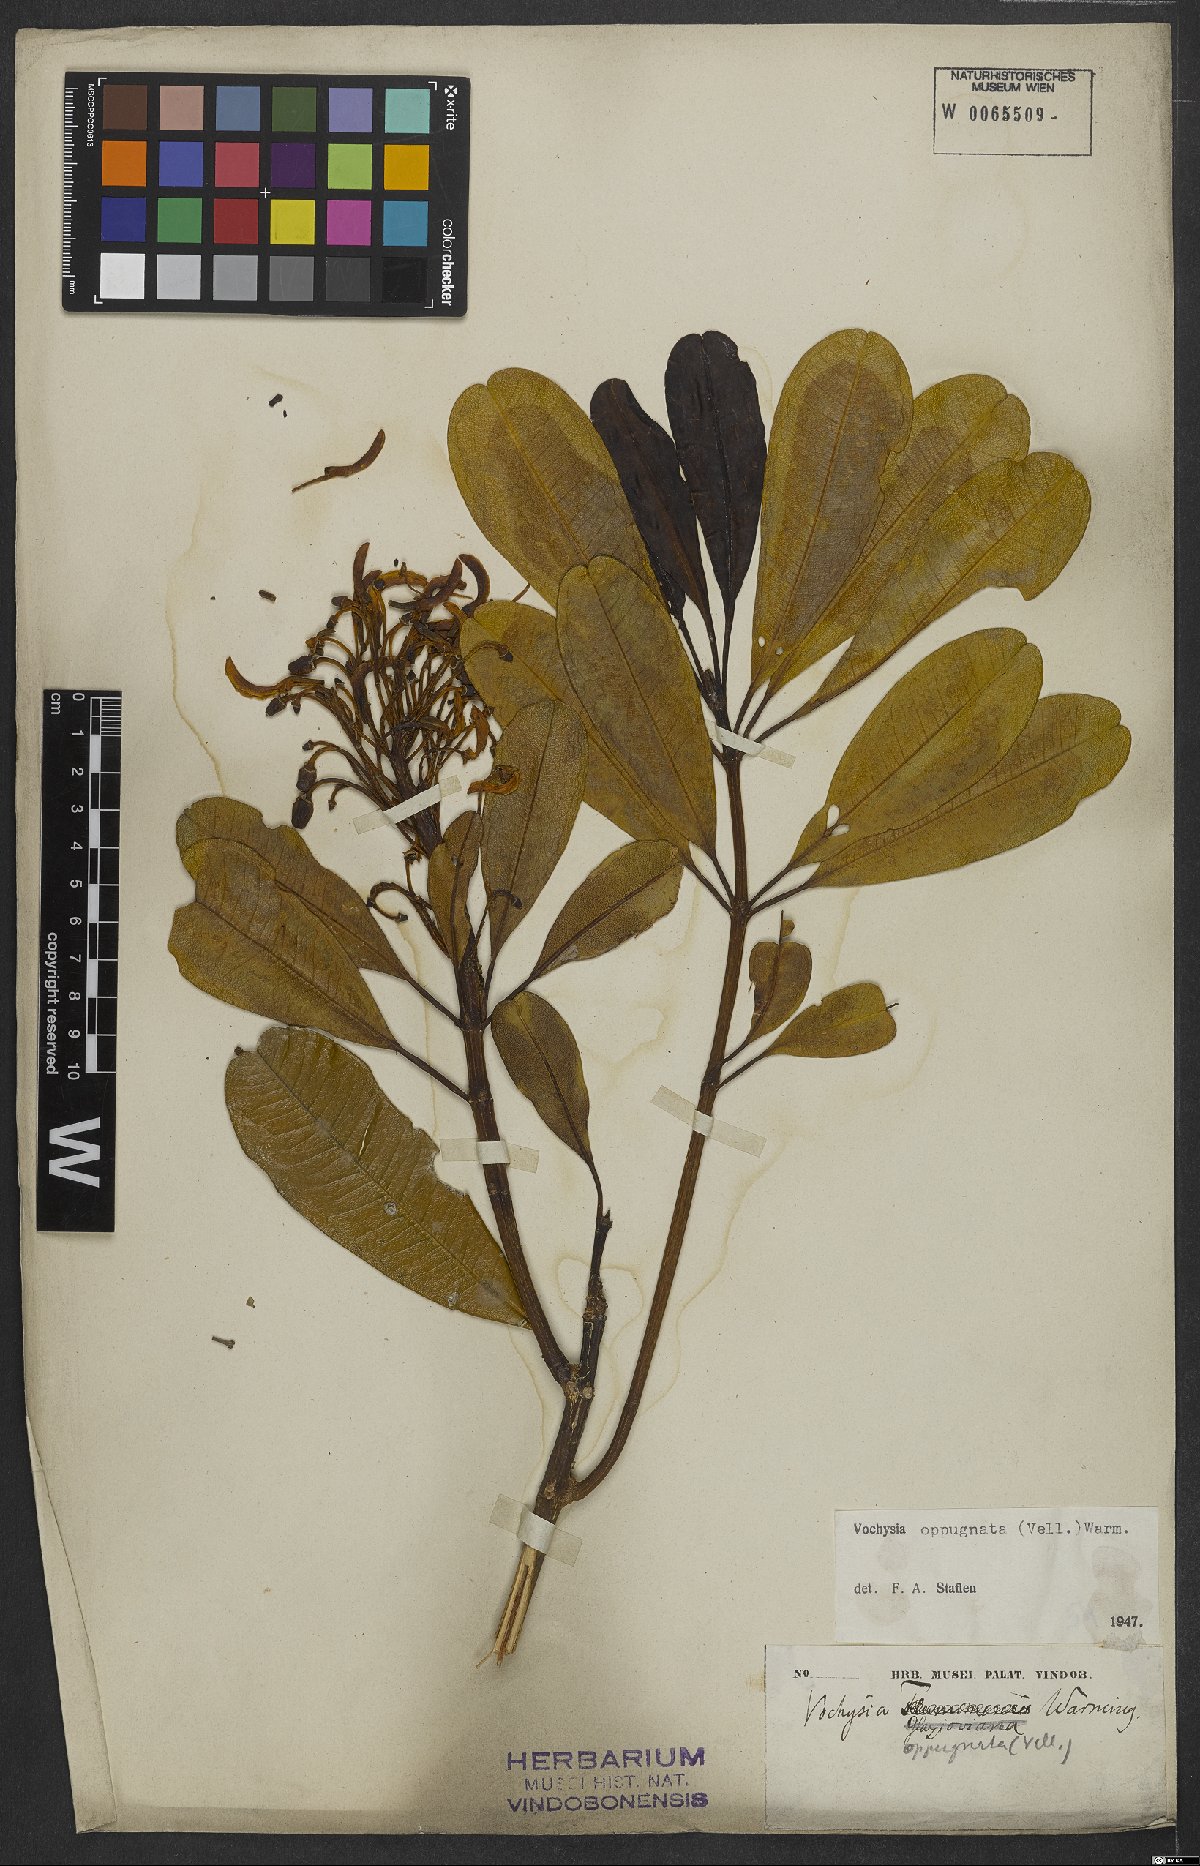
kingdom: Plantae
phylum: Tracheophyta
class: Magnoliopsida
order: Myrtales
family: Vochysiaceae
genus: Vochysia
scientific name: Vochysia oppugnata
